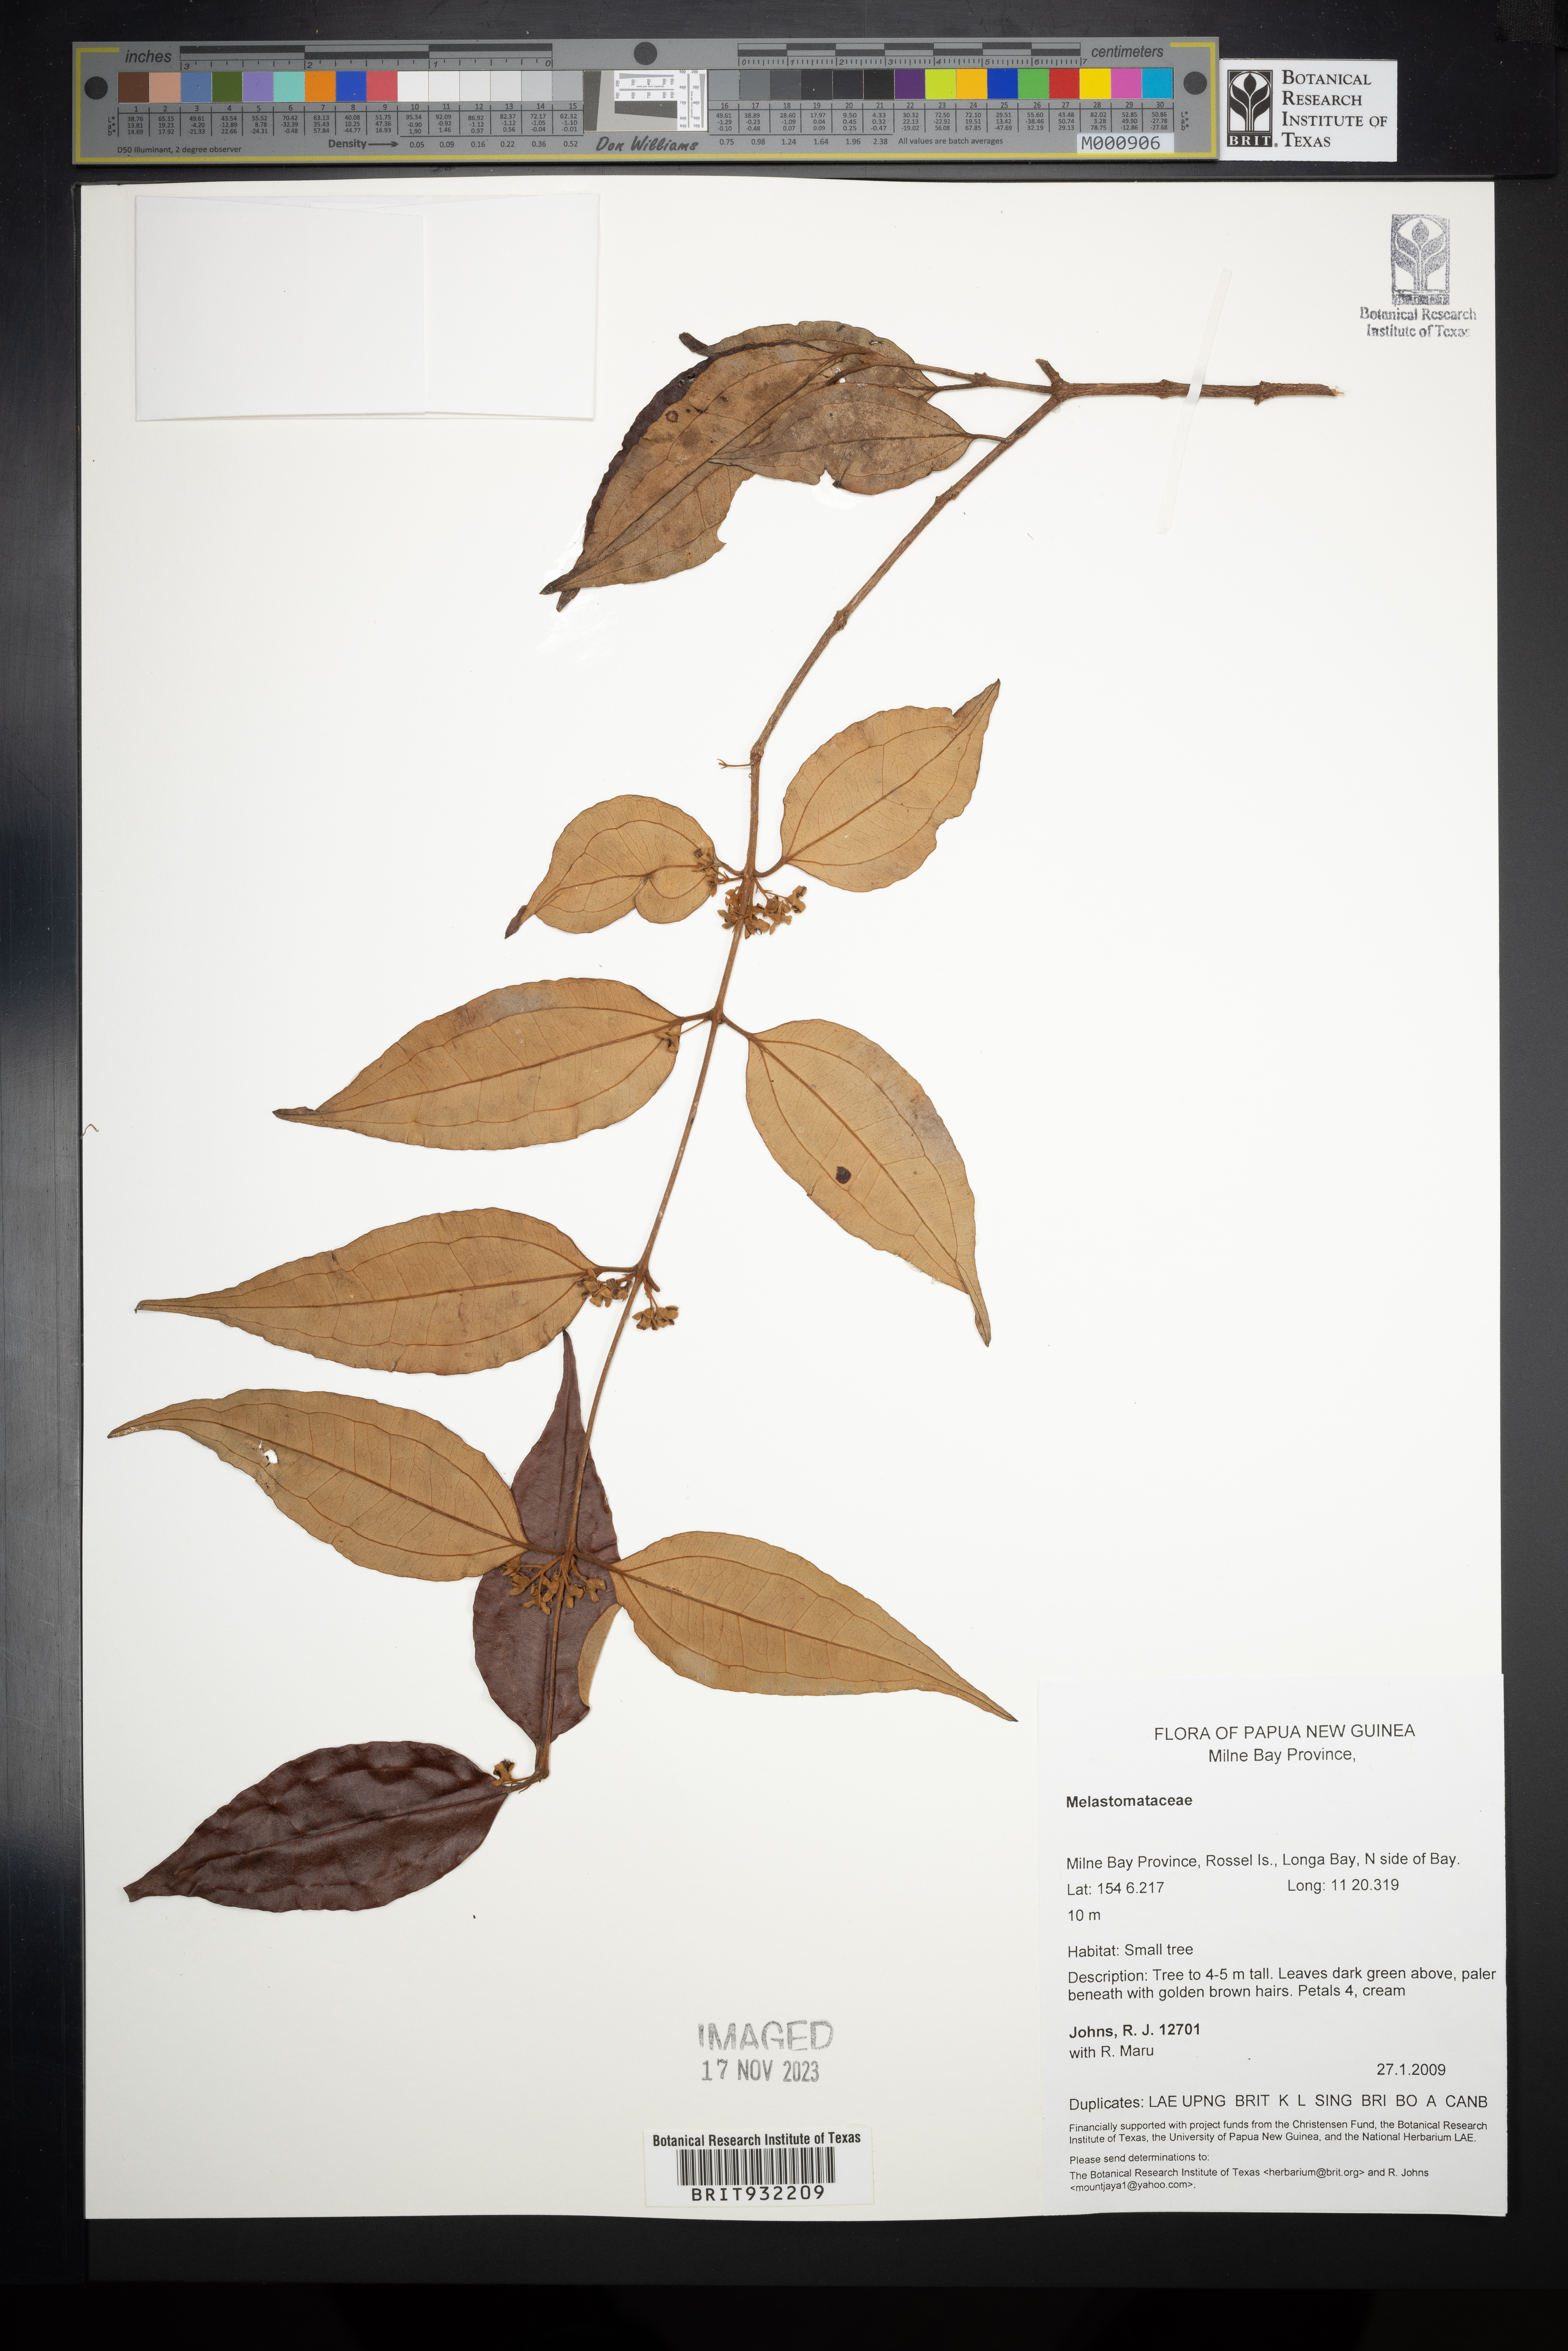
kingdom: Plantae
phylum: Tracheophyta
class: Magnoliopsida
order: Myrtales
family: Melastomataceae
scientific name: Melastomataceae
